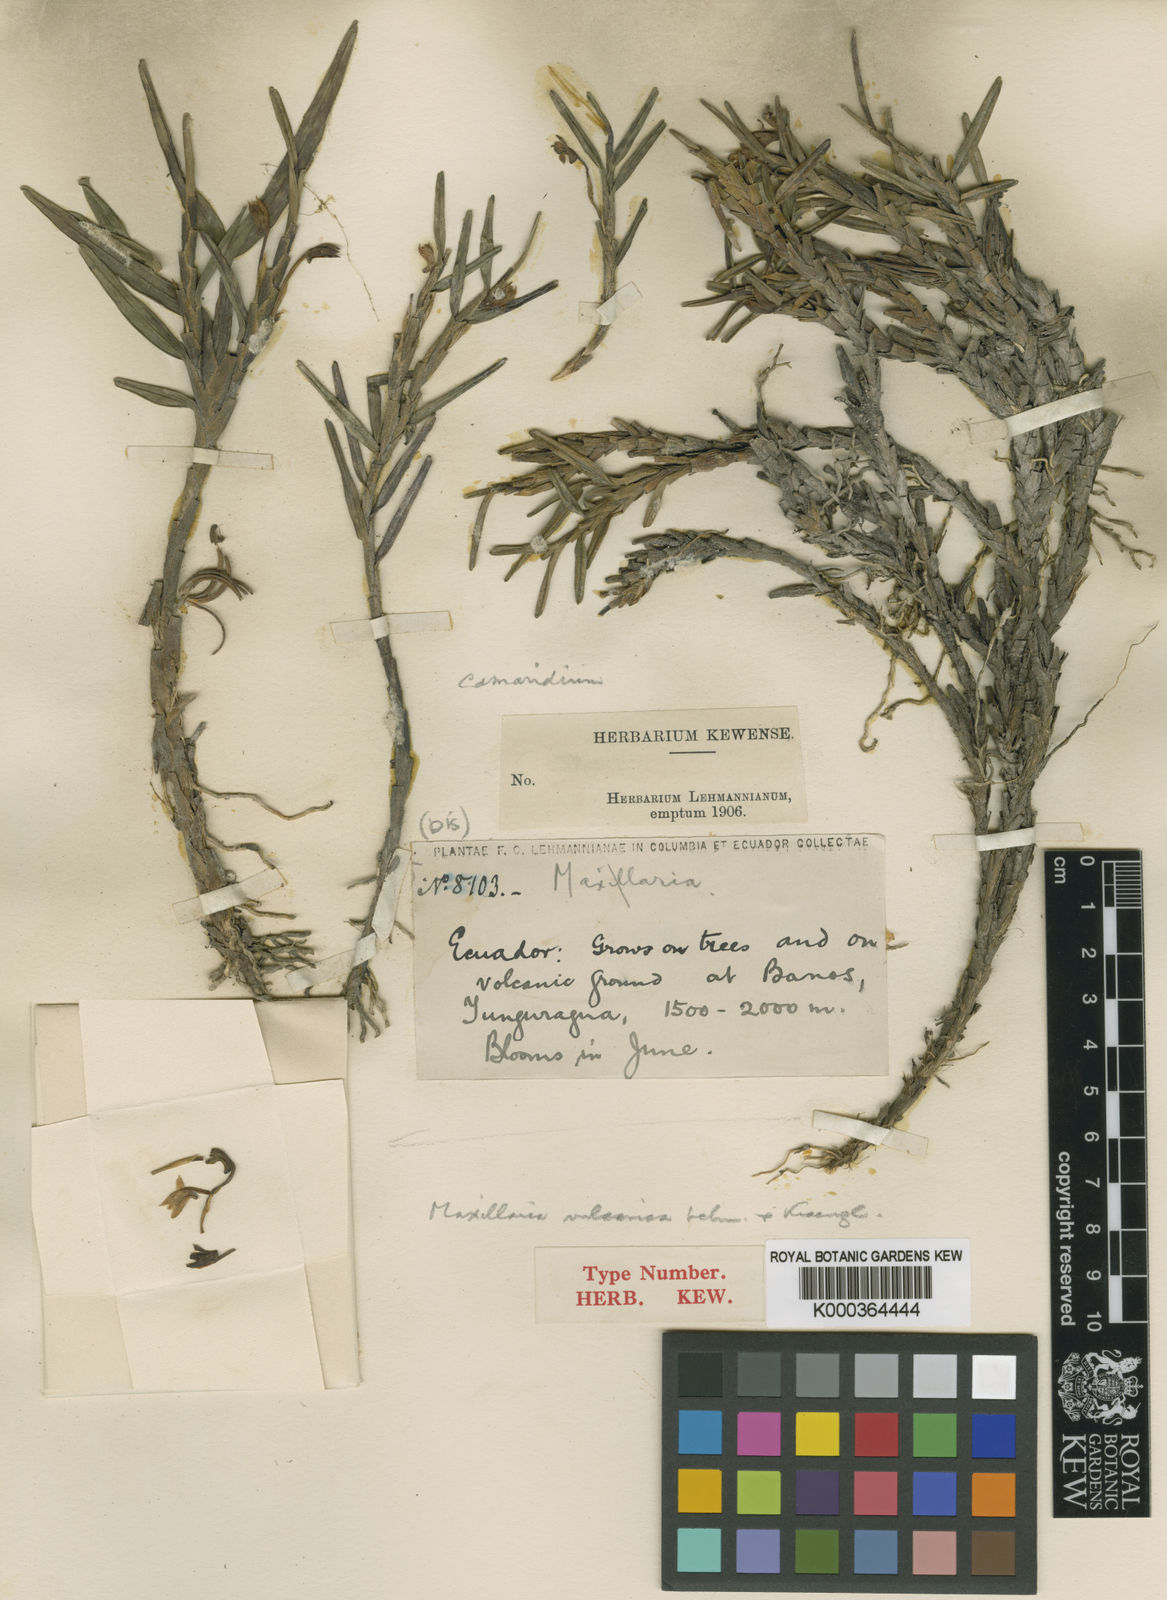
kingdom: Plantae
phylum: Tracheophyta
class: Liliopsida
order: Asparagales
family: Orchidaceae
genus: Maxillaria
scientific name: Maxillaria vulcanica
